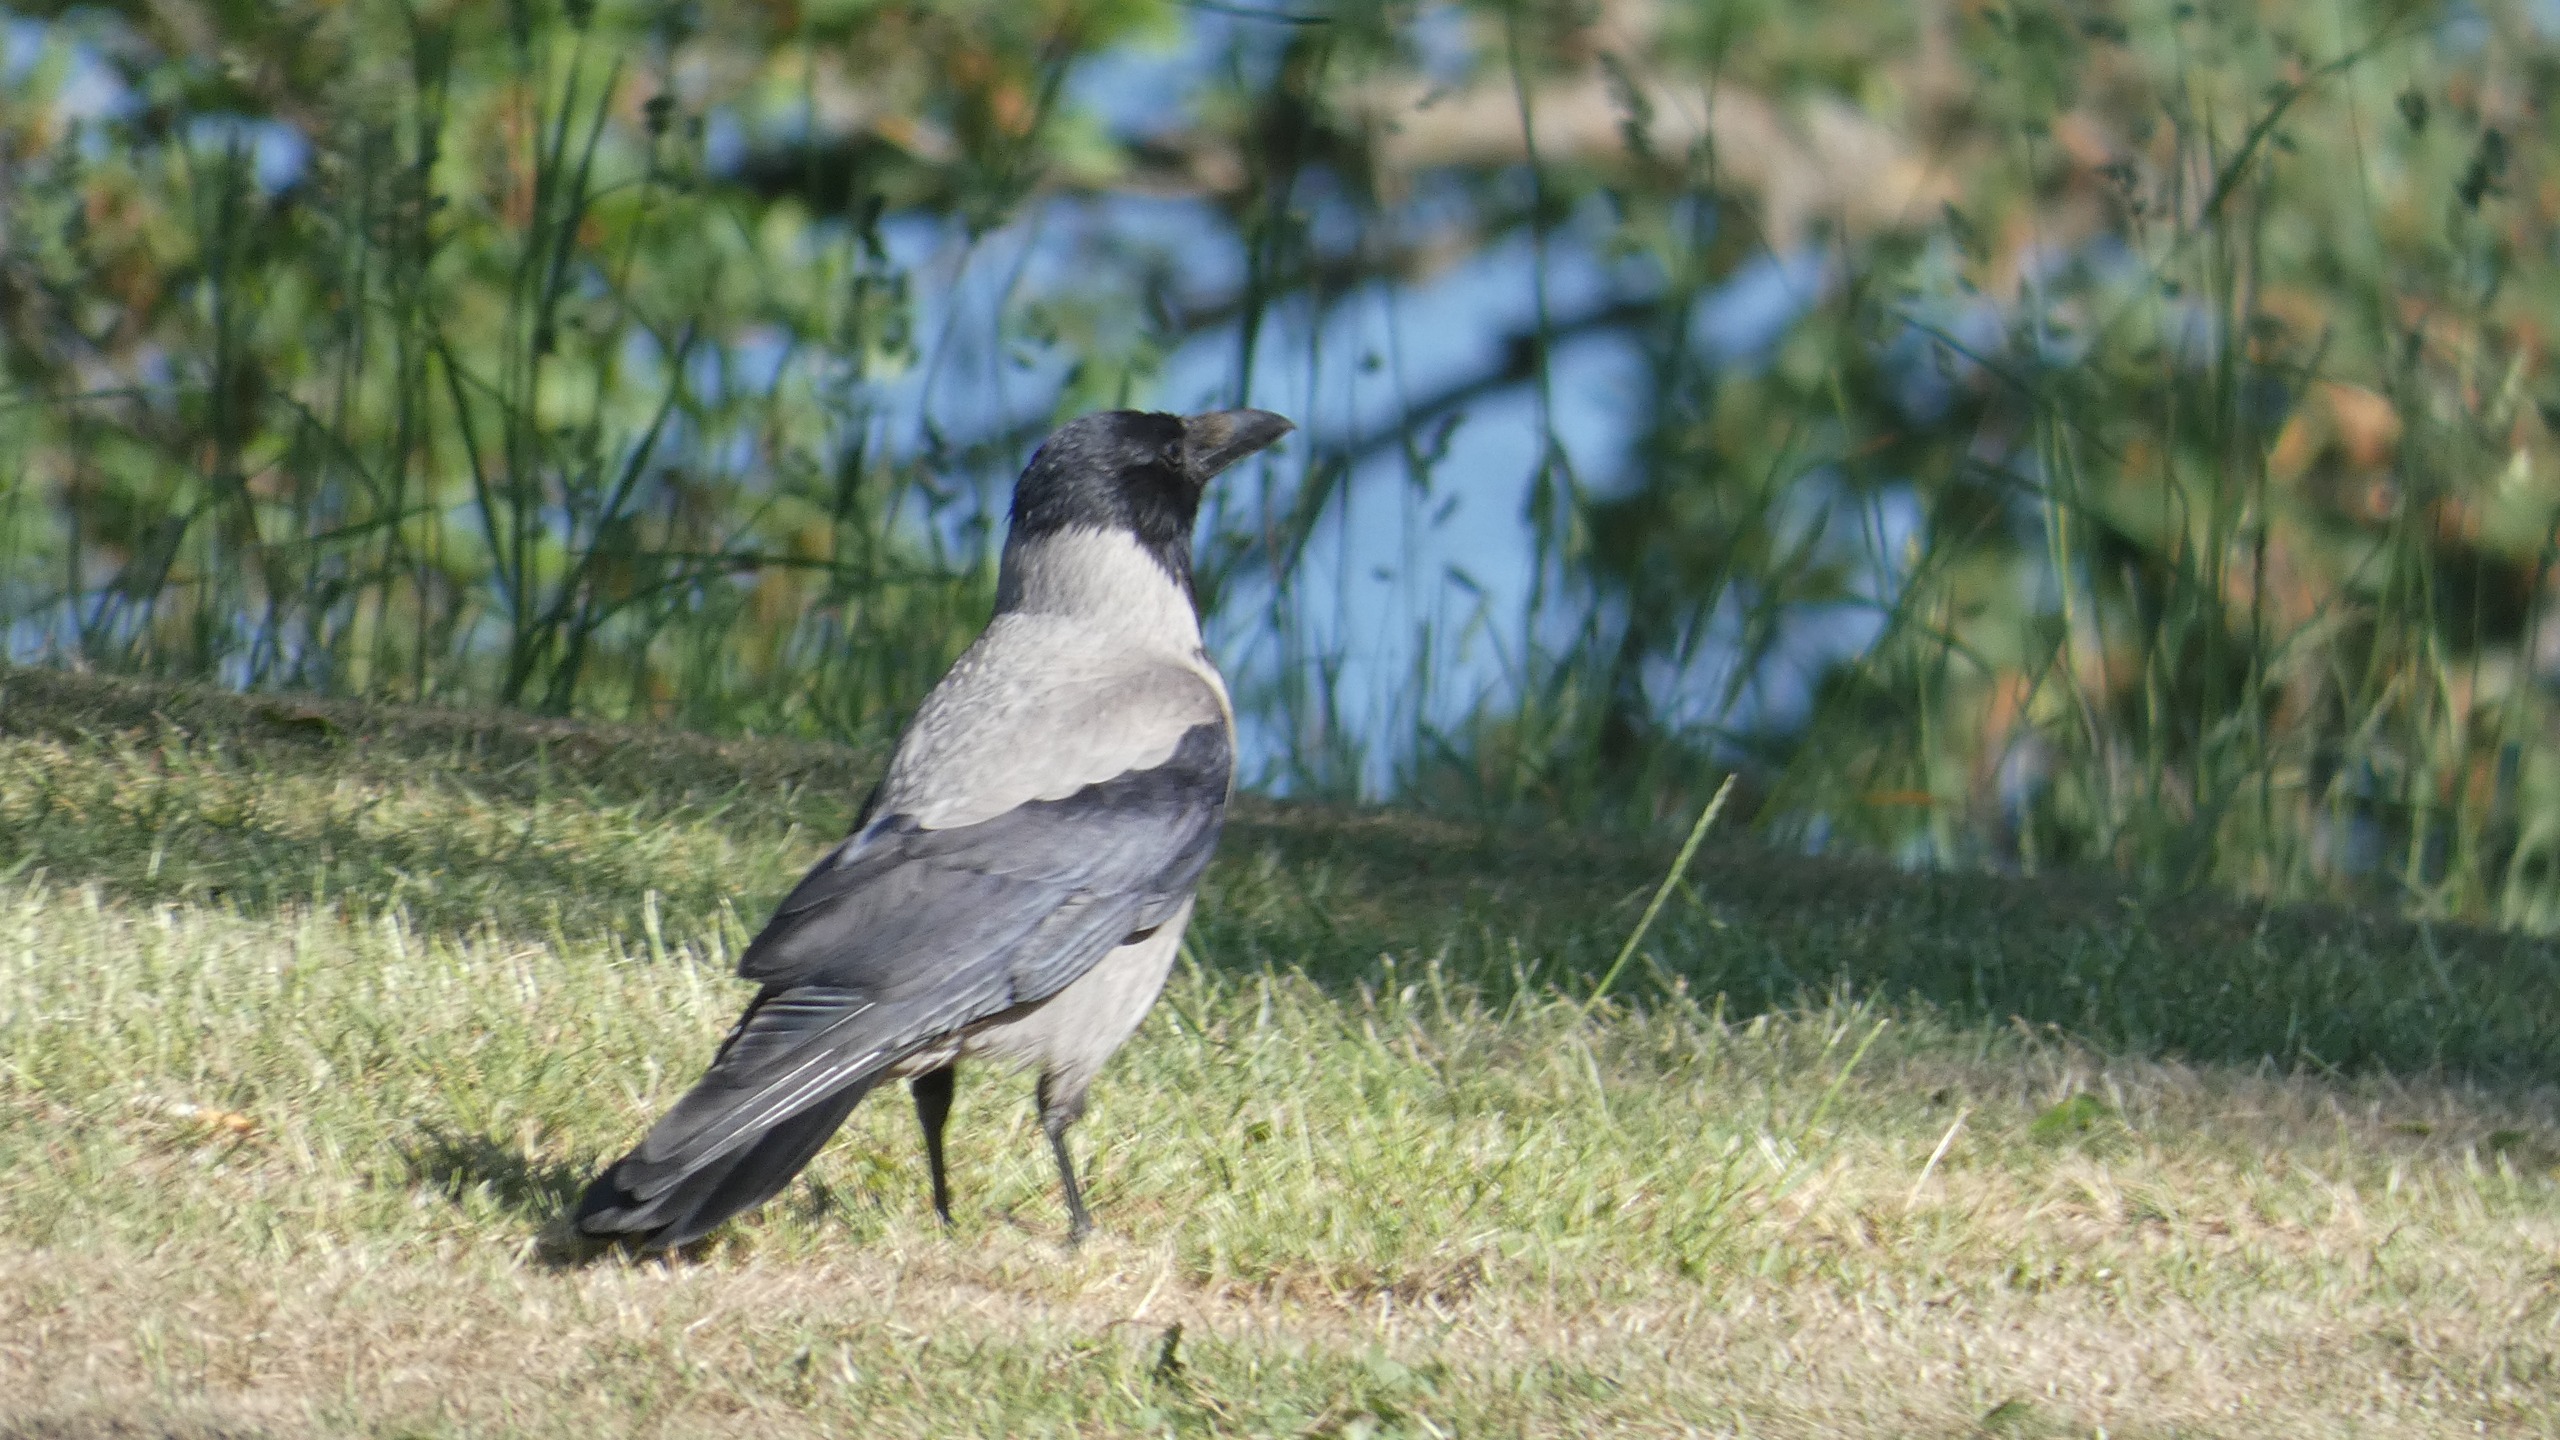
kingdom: Animalia
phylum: Chordata
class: Aves
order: Passeriformes
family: Corvidae
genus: Corvus
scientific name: Corvus cornix
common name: Gråkrage
